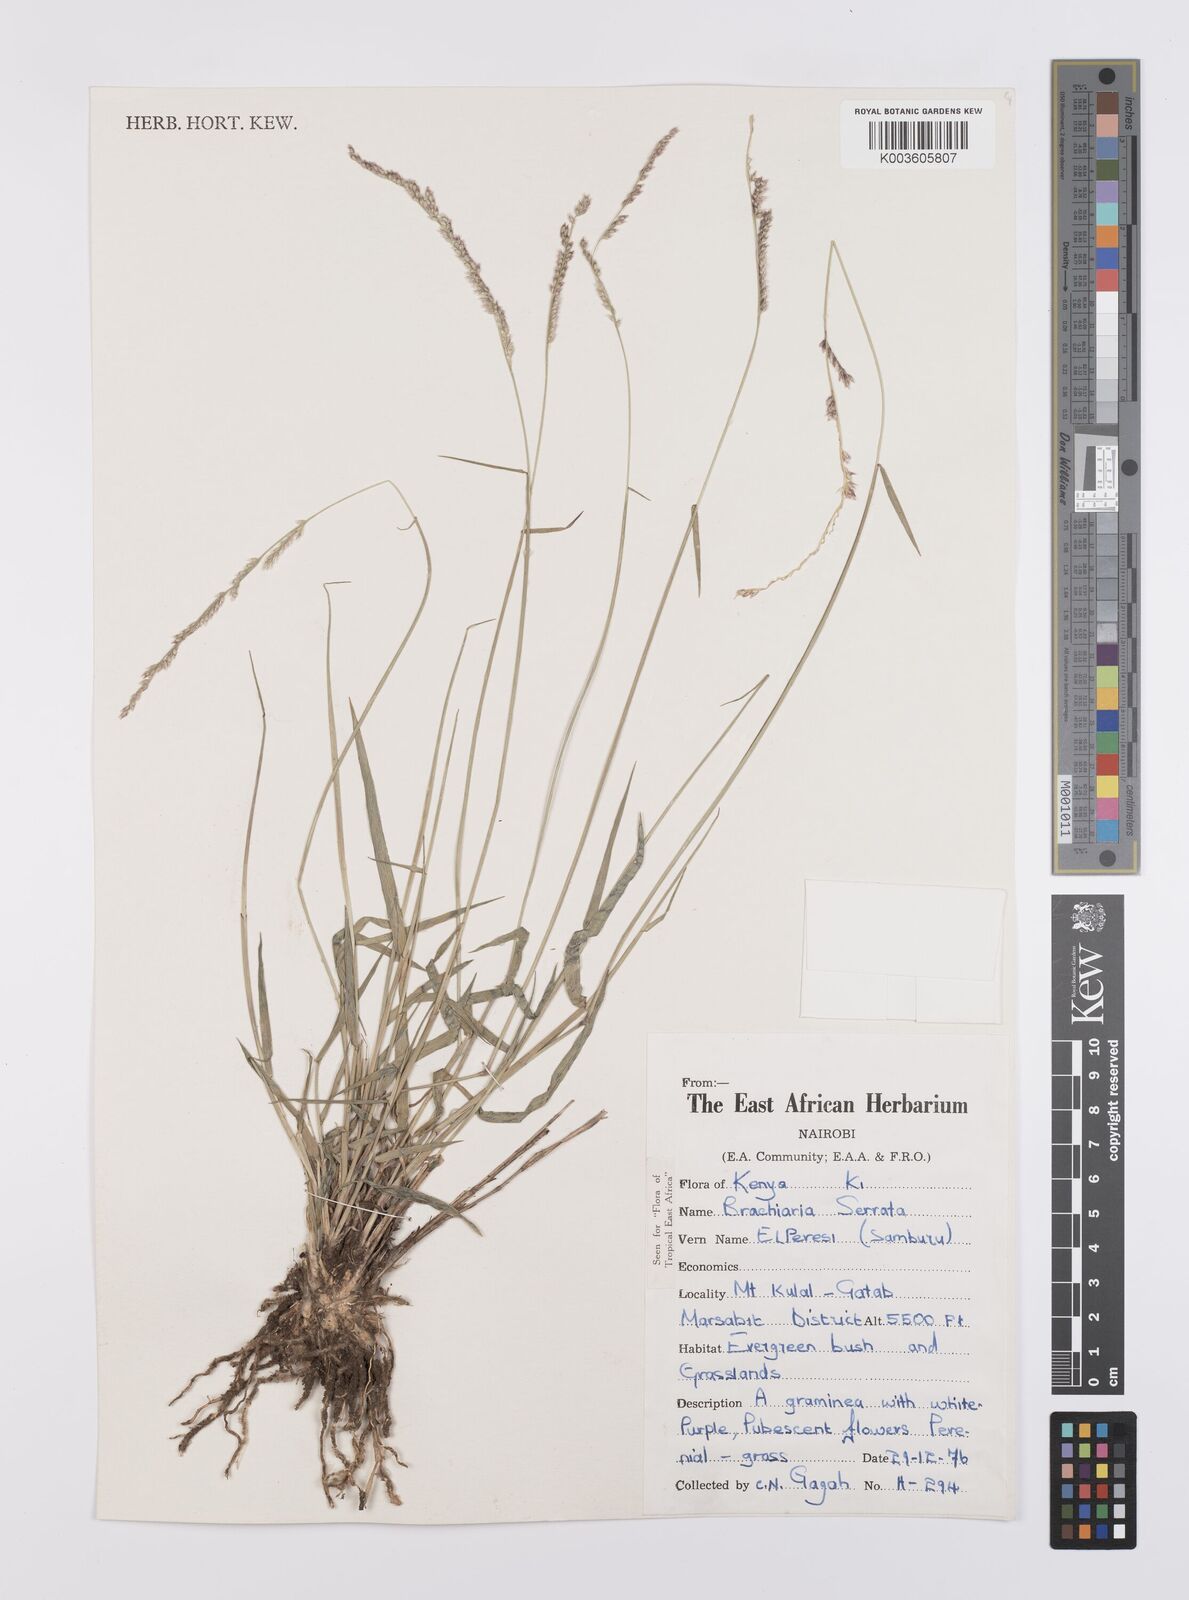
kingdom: Plantae
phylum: Tracheophyta
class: Liliopsida
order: Poales
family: Poaceae
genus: Urochloa
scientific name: Urochloa serrata
